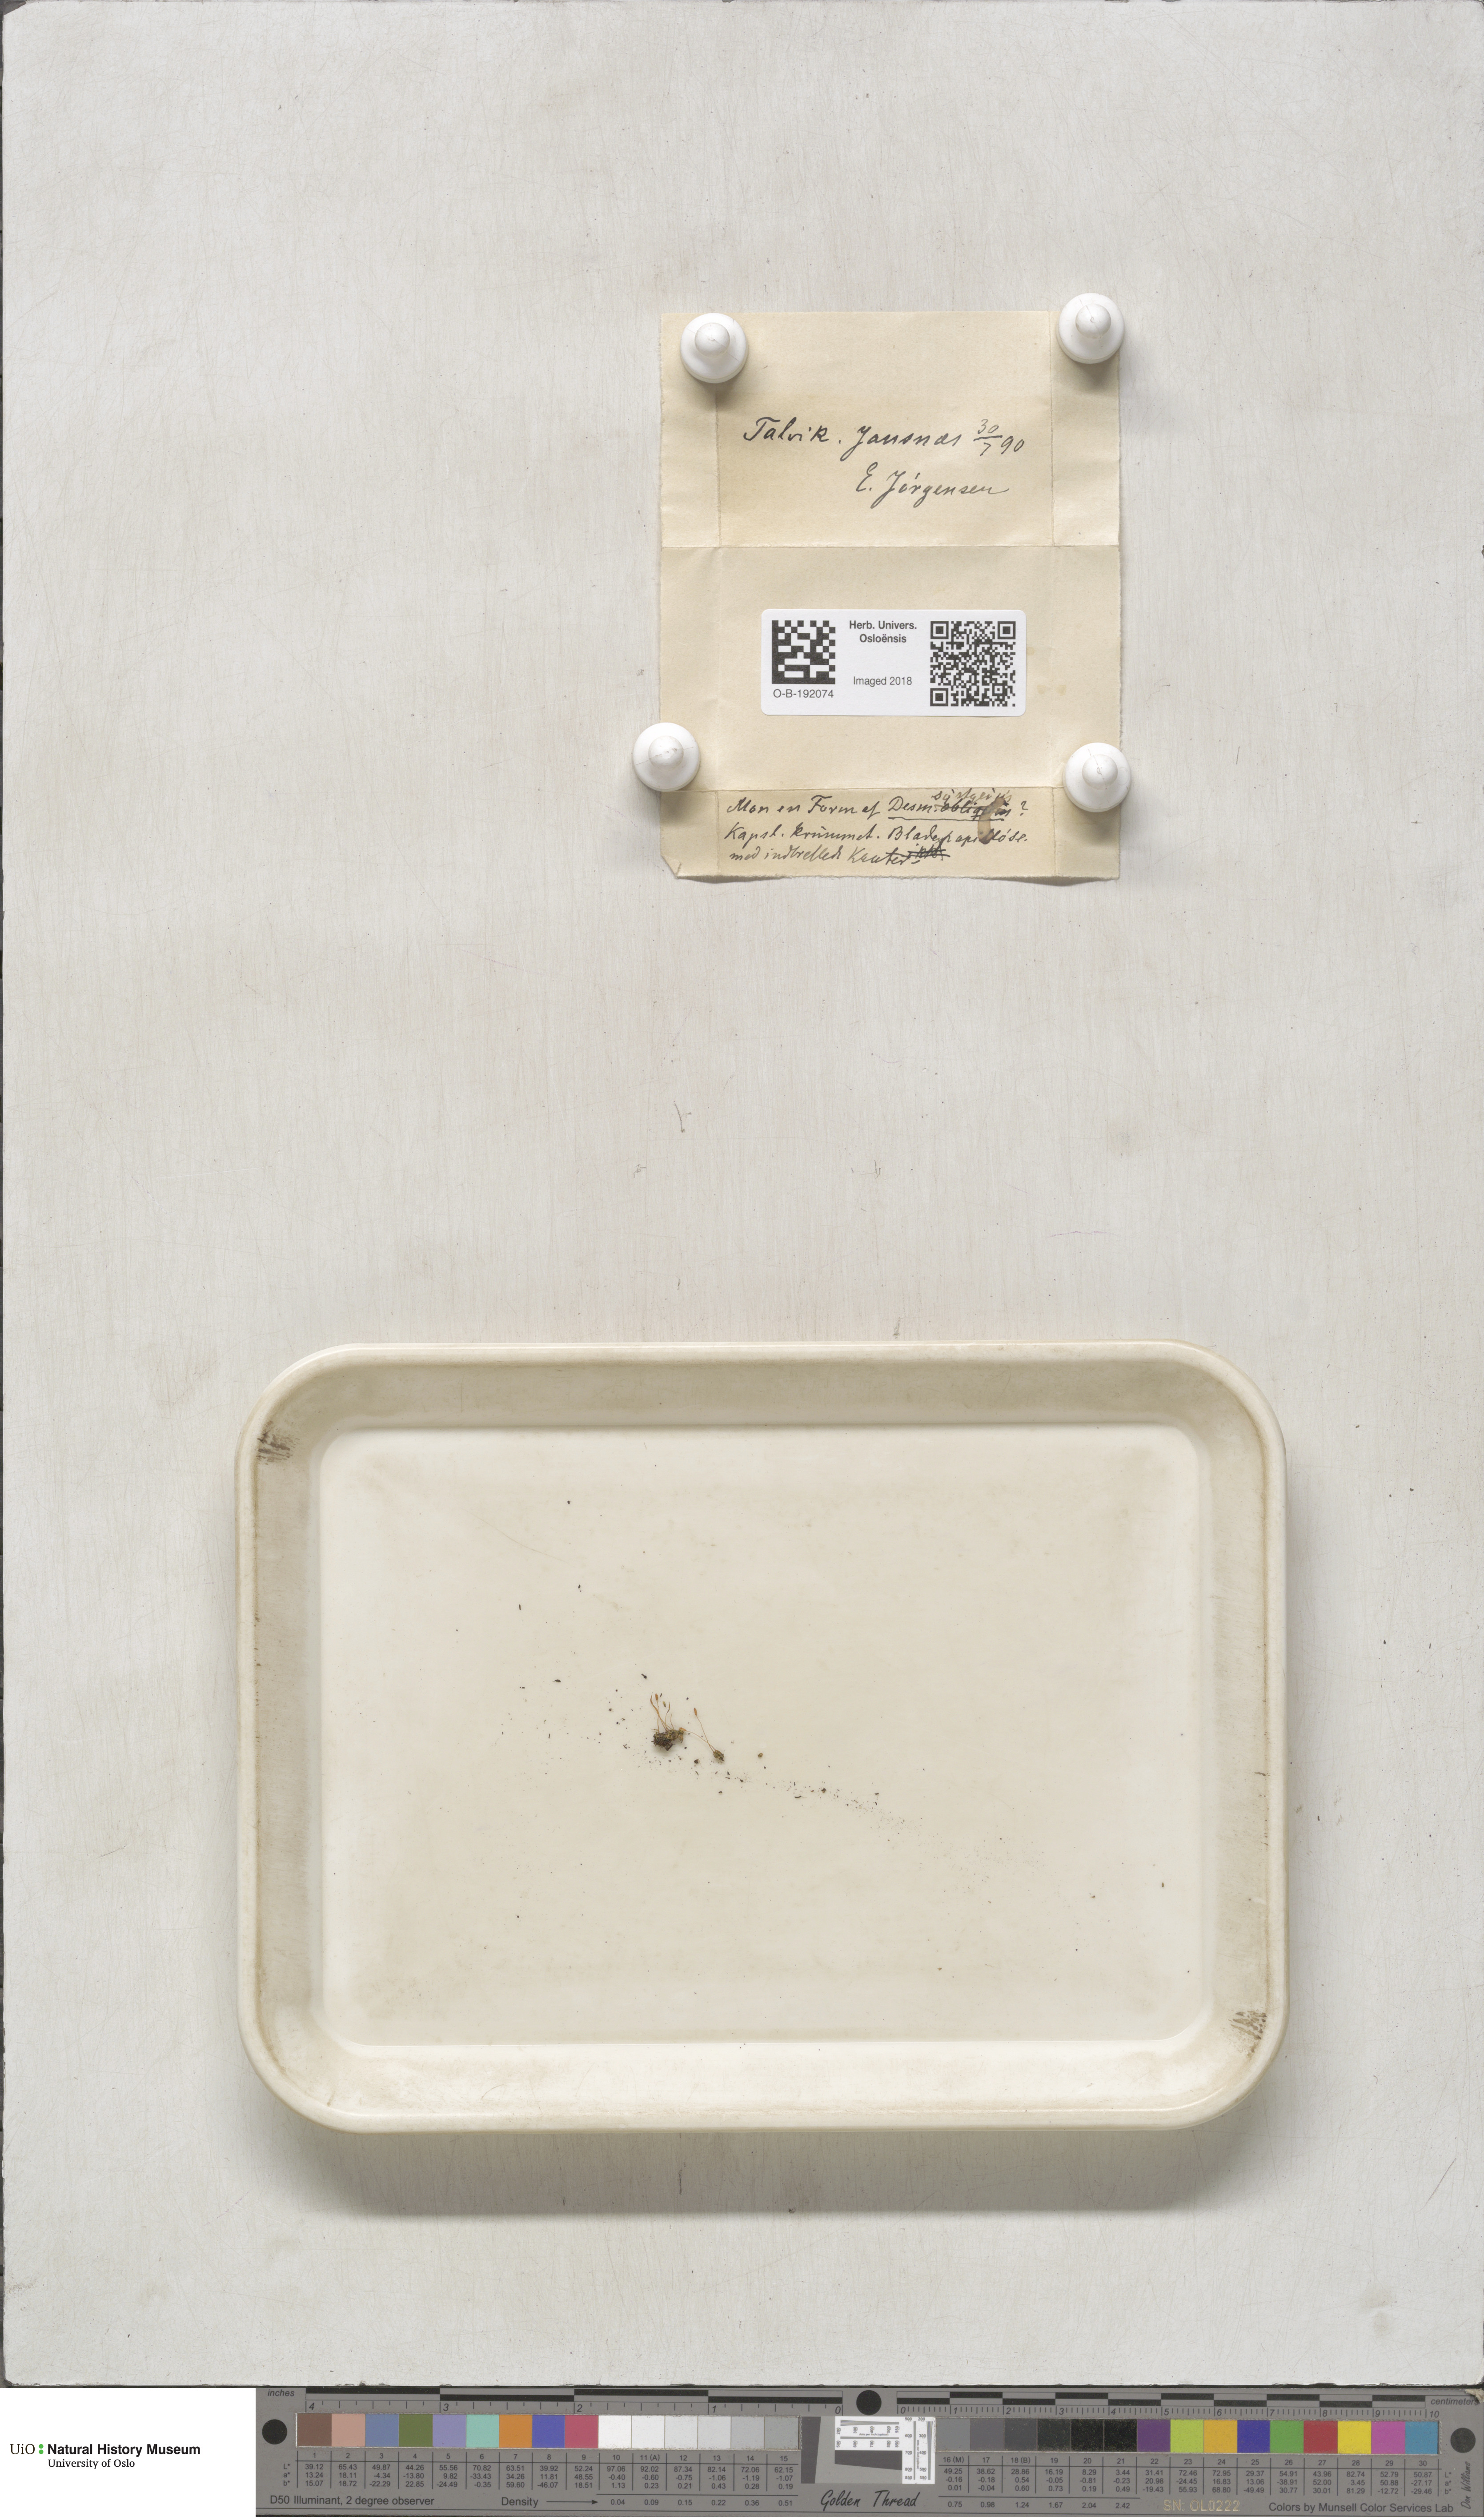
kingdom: Plantae
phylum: Bryophyta
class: Bryopsida
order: Pottiales
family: Pottiaceae
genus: Tortula
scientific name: Tortula hoppeana
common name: Hoppe's screw moss
